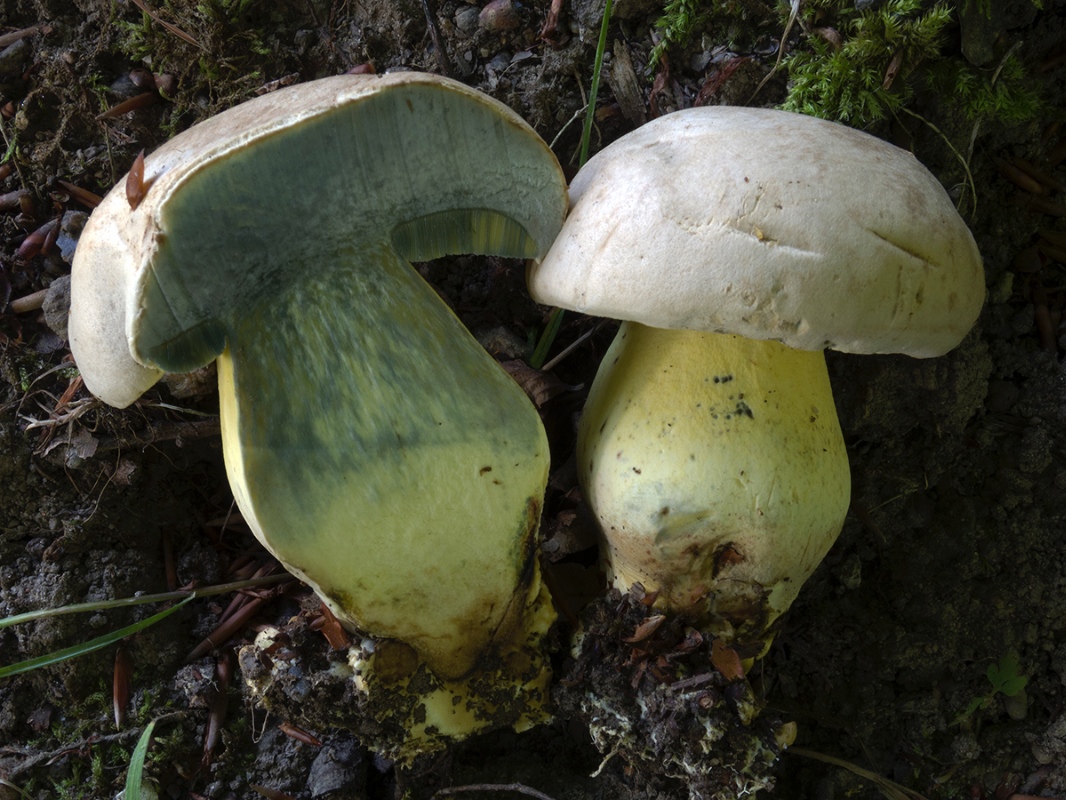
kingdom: Fungi
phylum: Basidiomycota
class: Agaricomycetes
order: Boletales
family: Boletaceae
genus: Caloboletus
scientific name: Caloboletus radicans
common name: rod-rørhat
